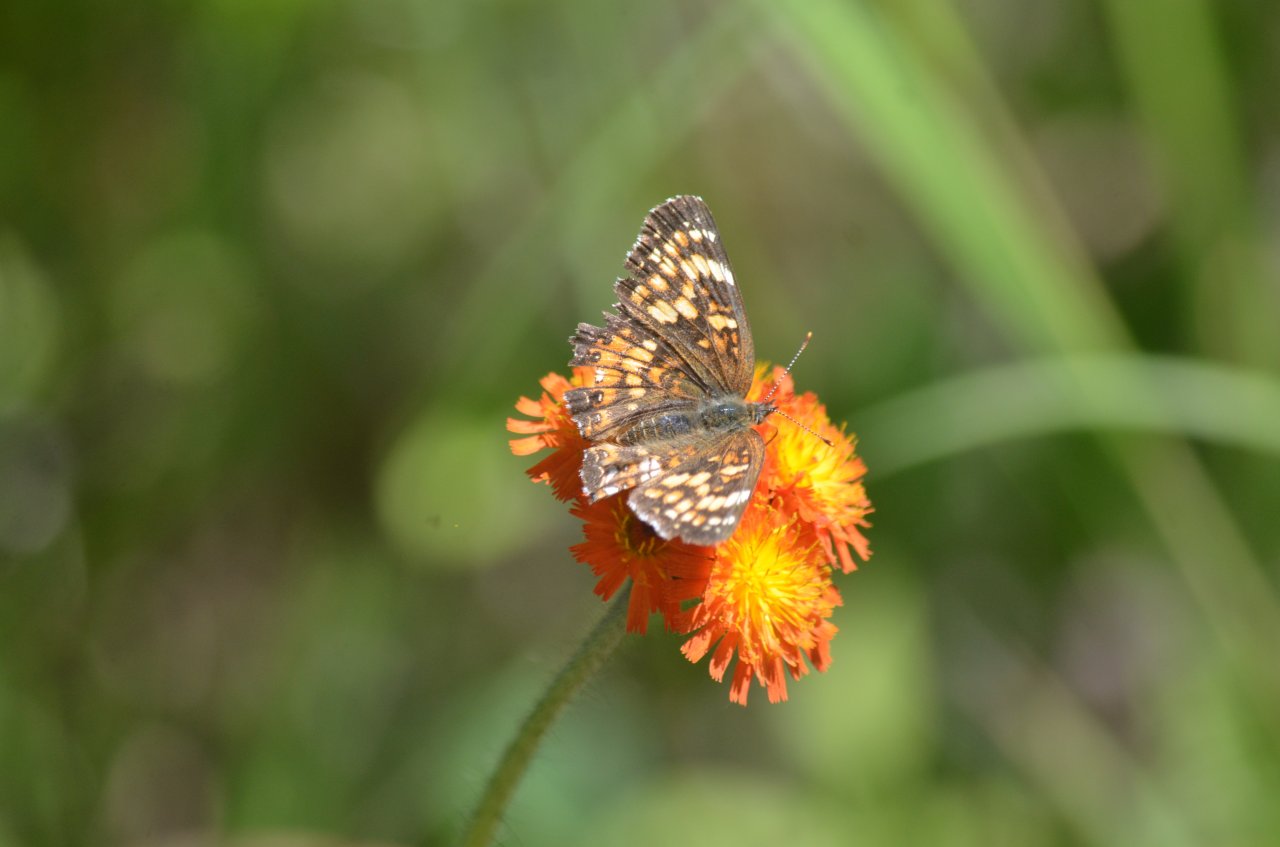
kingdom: Animalia
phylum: Arthropoda
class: Insecta
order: Lepidoptera
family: Nymphalidae
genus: Chlosyne
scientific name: Chlosyne harrisii
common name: Harris's Checkerspot
